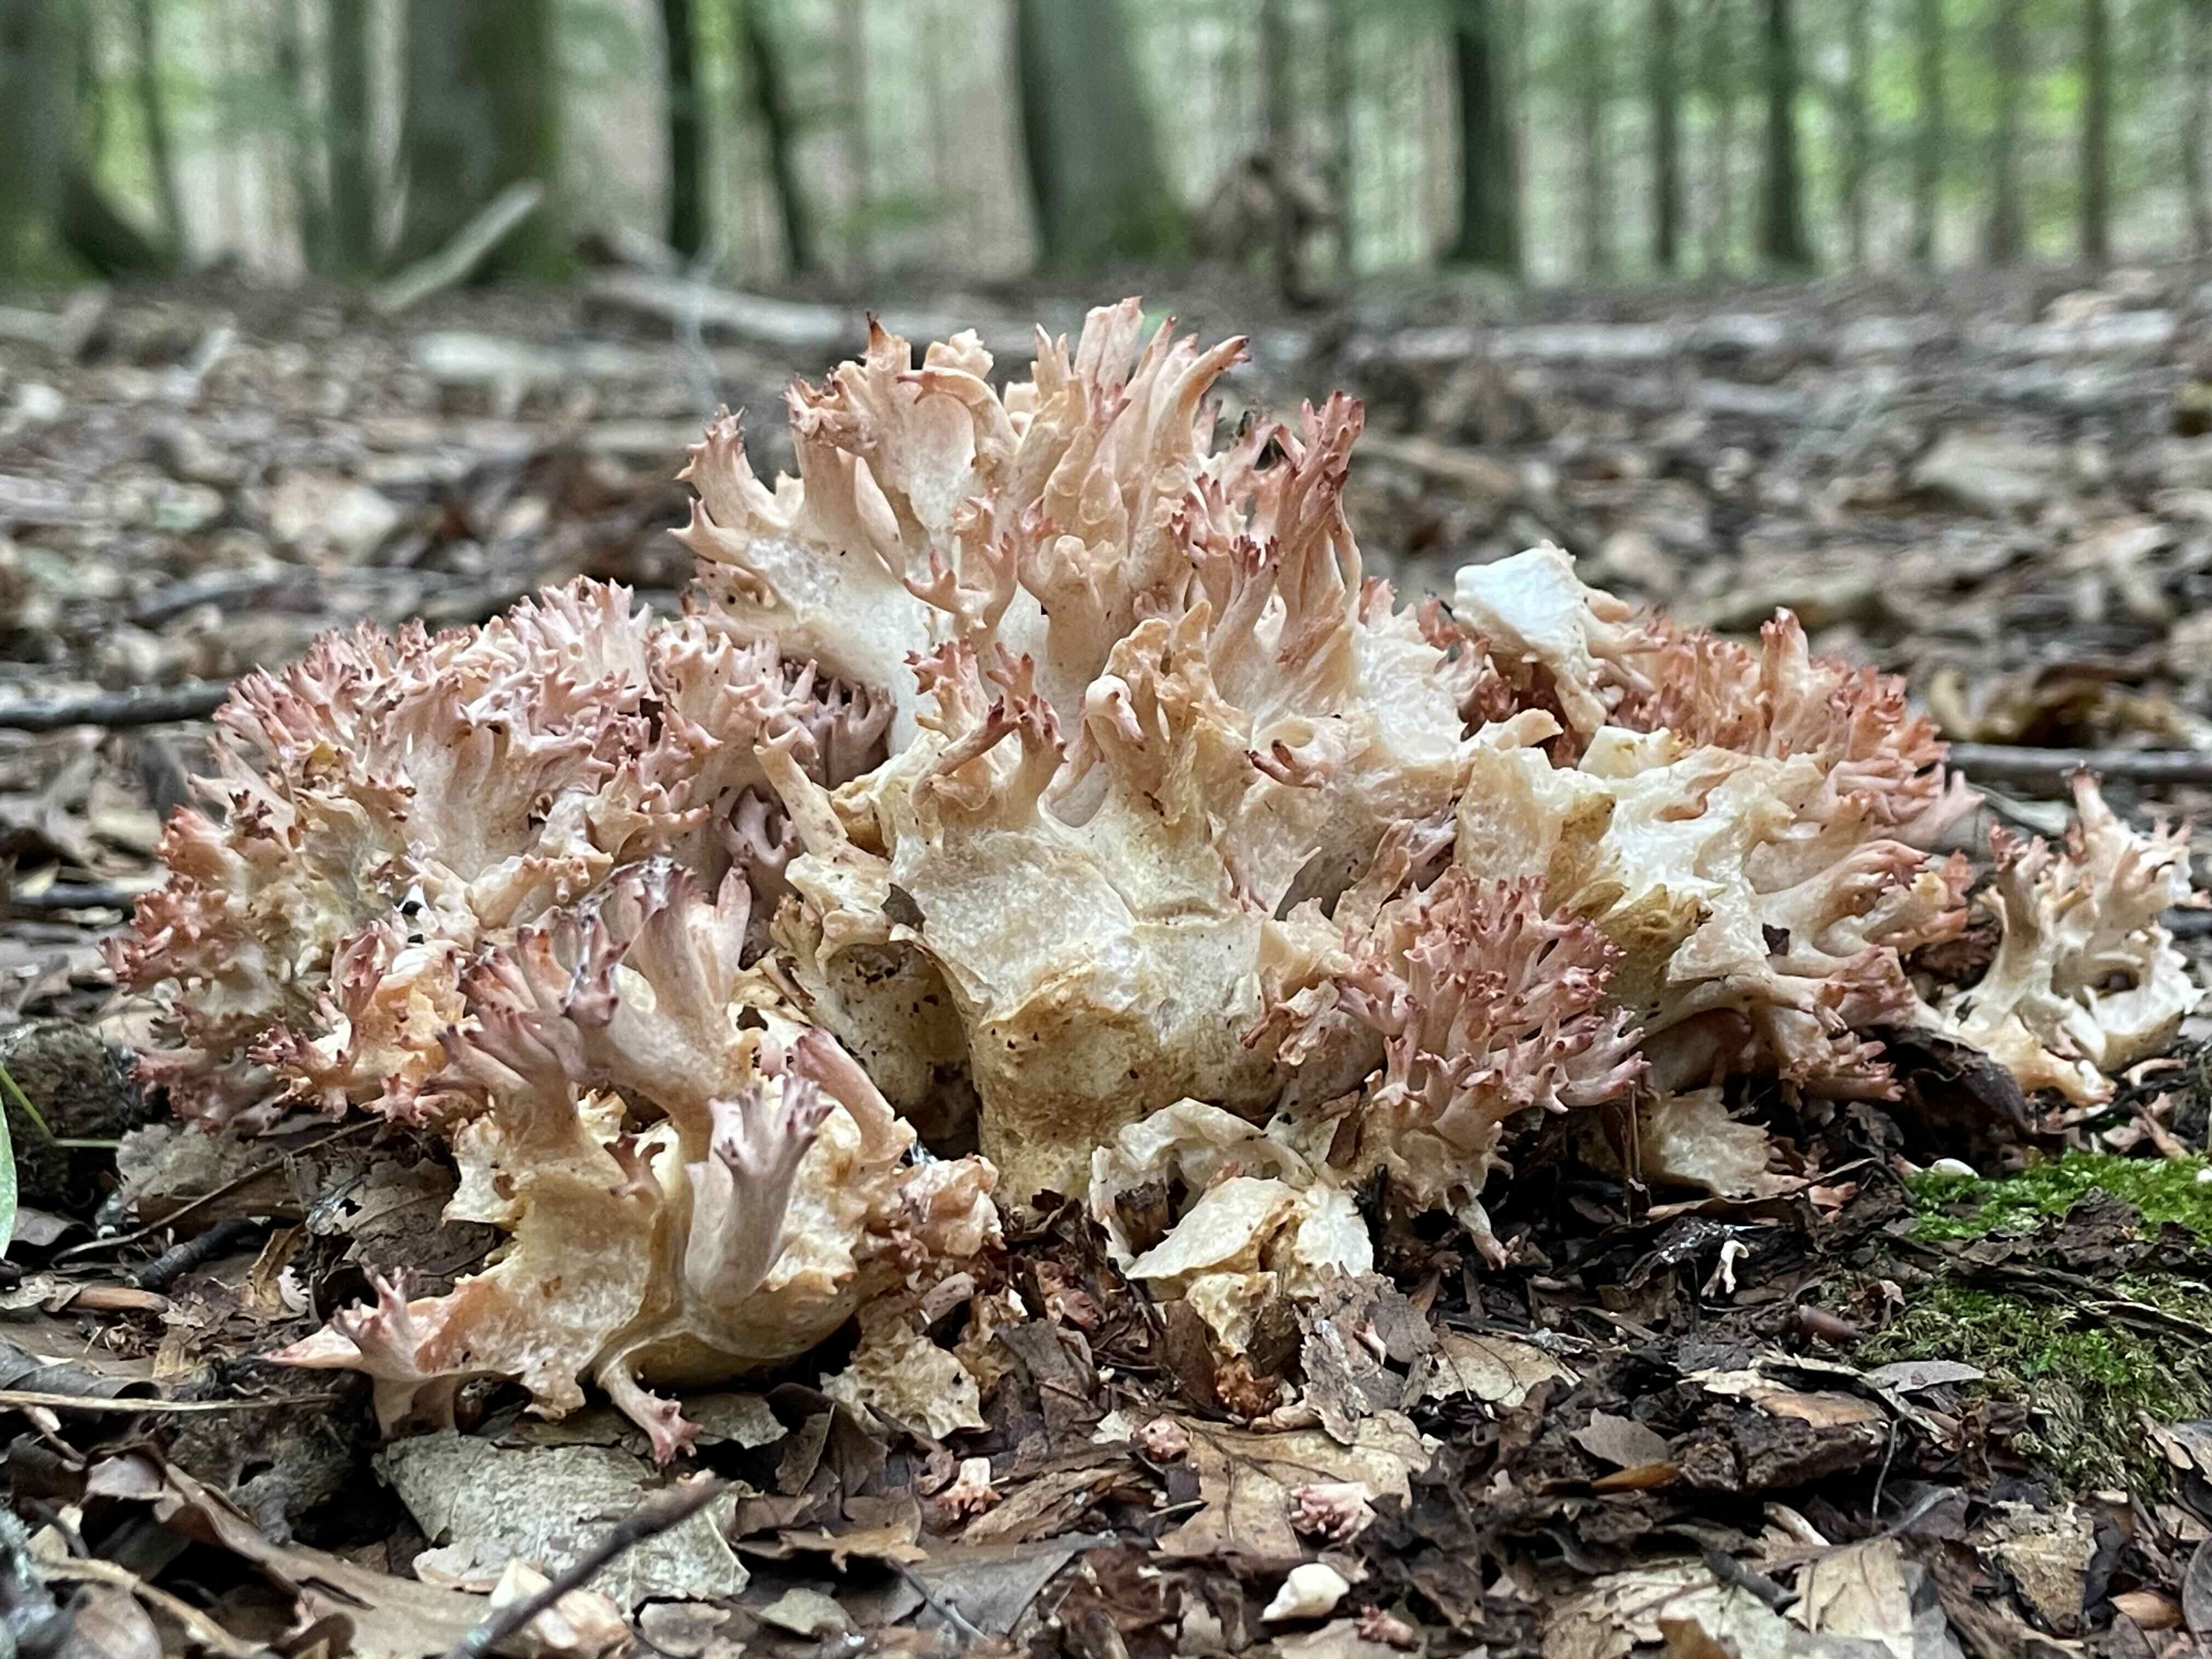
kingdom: Fungi
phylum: Basidiomycota
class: Agaricomycetes
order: Gomphales
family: Gomphaceae
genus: Ramaria
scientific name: Ramaria botrytis
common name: drue-koralsvamp
